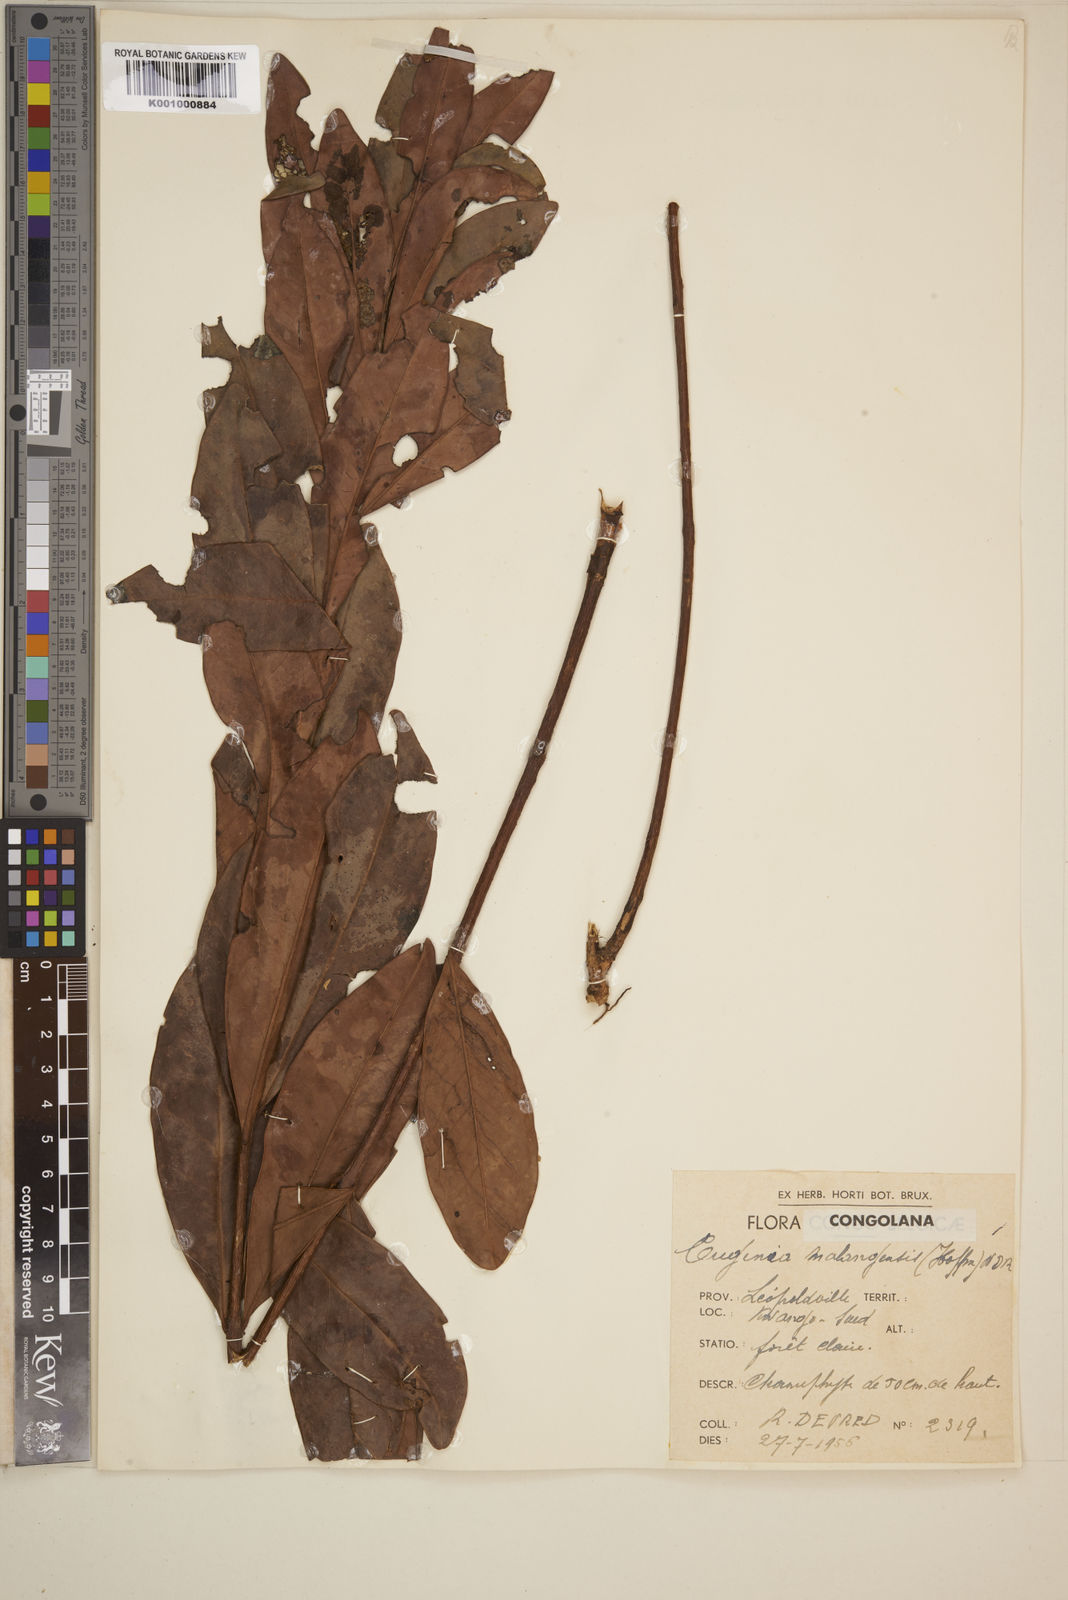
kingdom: Plantae
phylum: Tracheophyta
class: Magnoliopsida
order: Myrtales
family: Myrtaceae
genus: Eugenia
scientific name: Eugenia malangensis
